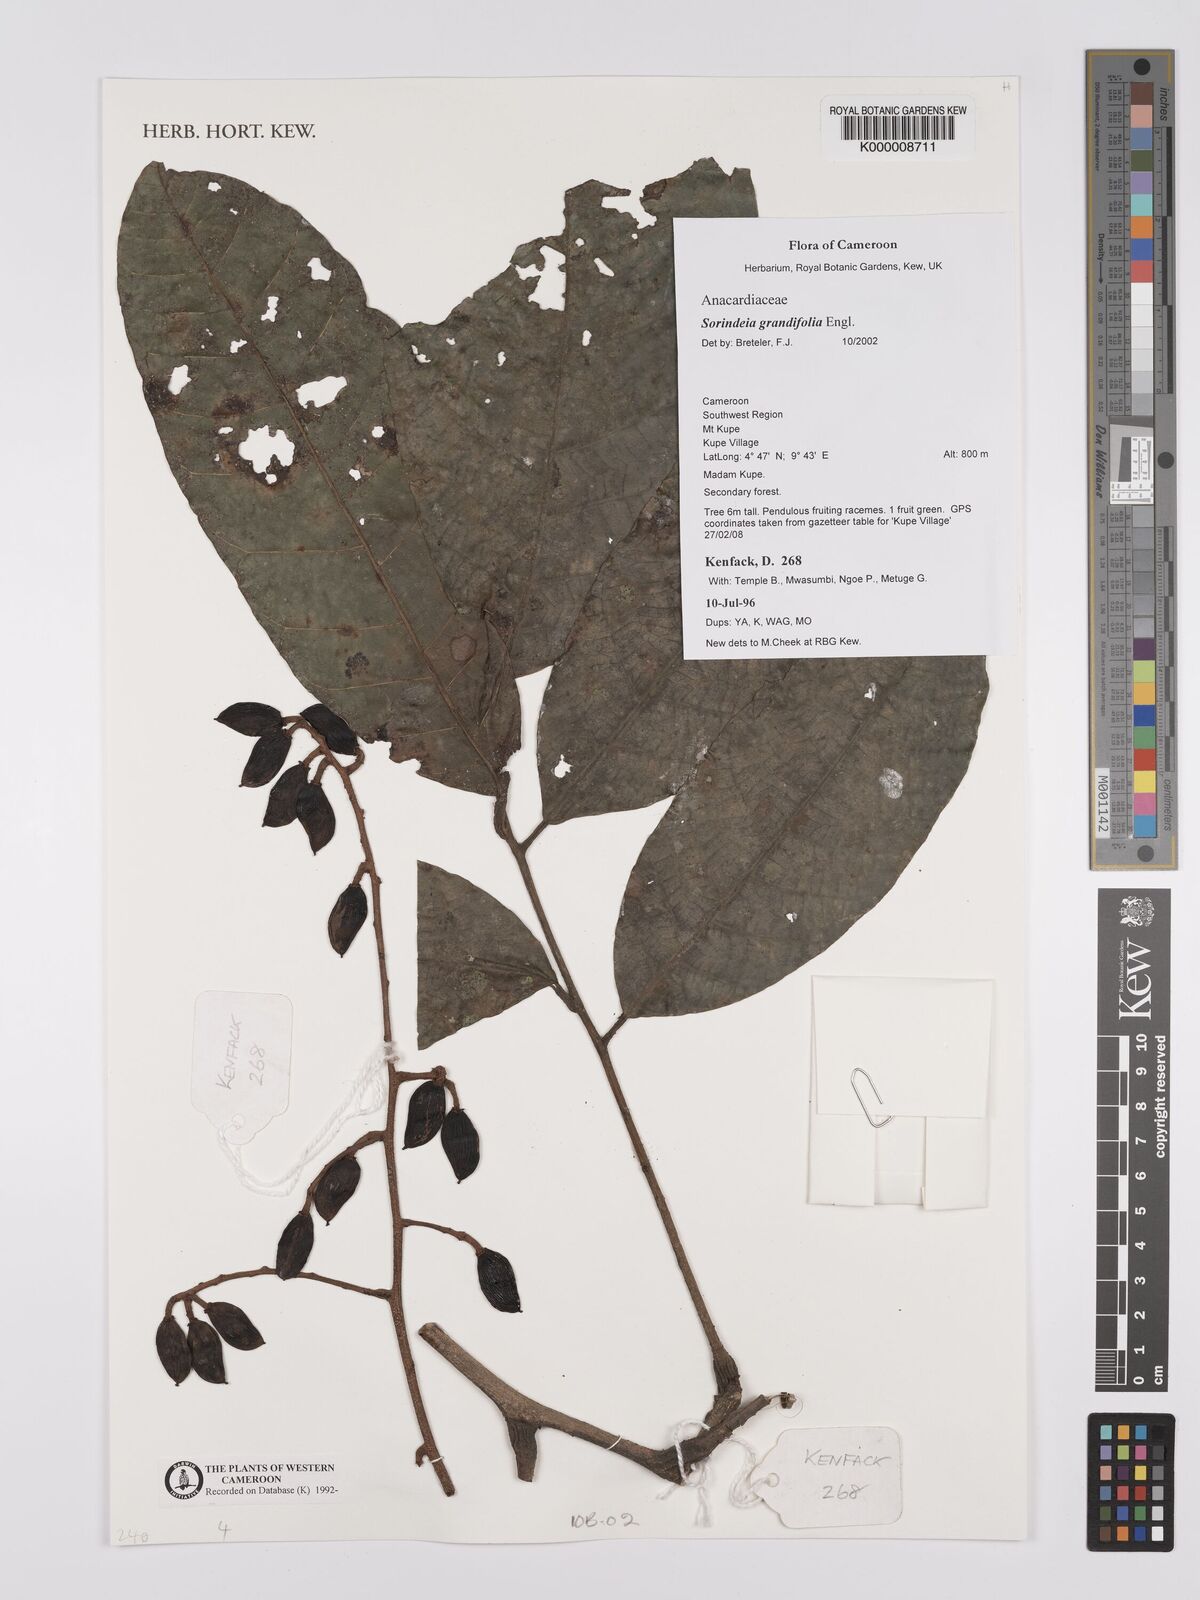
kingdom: Plantae
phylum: Tracheophyta
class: Magnoliopsida
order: Sapindales
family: Anacardiaceae
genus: Sorindeia
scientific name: Sorindeia grandifolia
